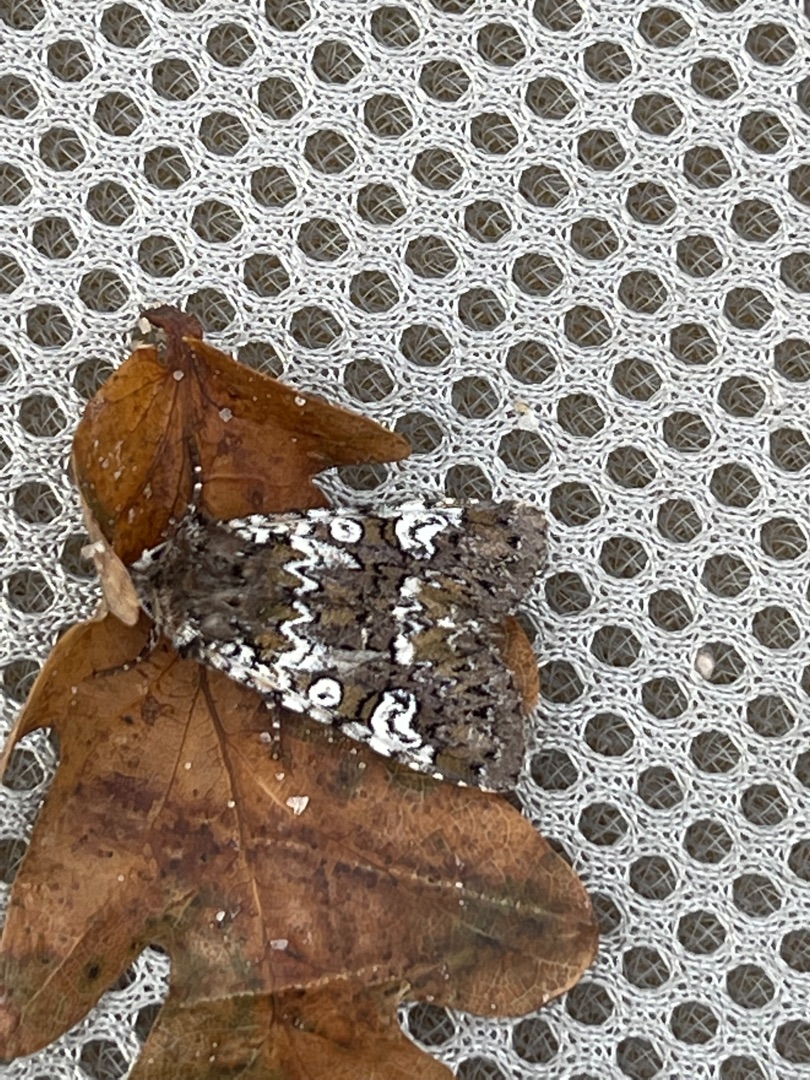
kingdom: Animalia
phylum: Arthropoda
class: Insecta
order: Lepidoptera
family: Noctuidae
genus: Crypsedra
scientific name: Crypsedra gemmea
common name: Smykke-stængelugle
